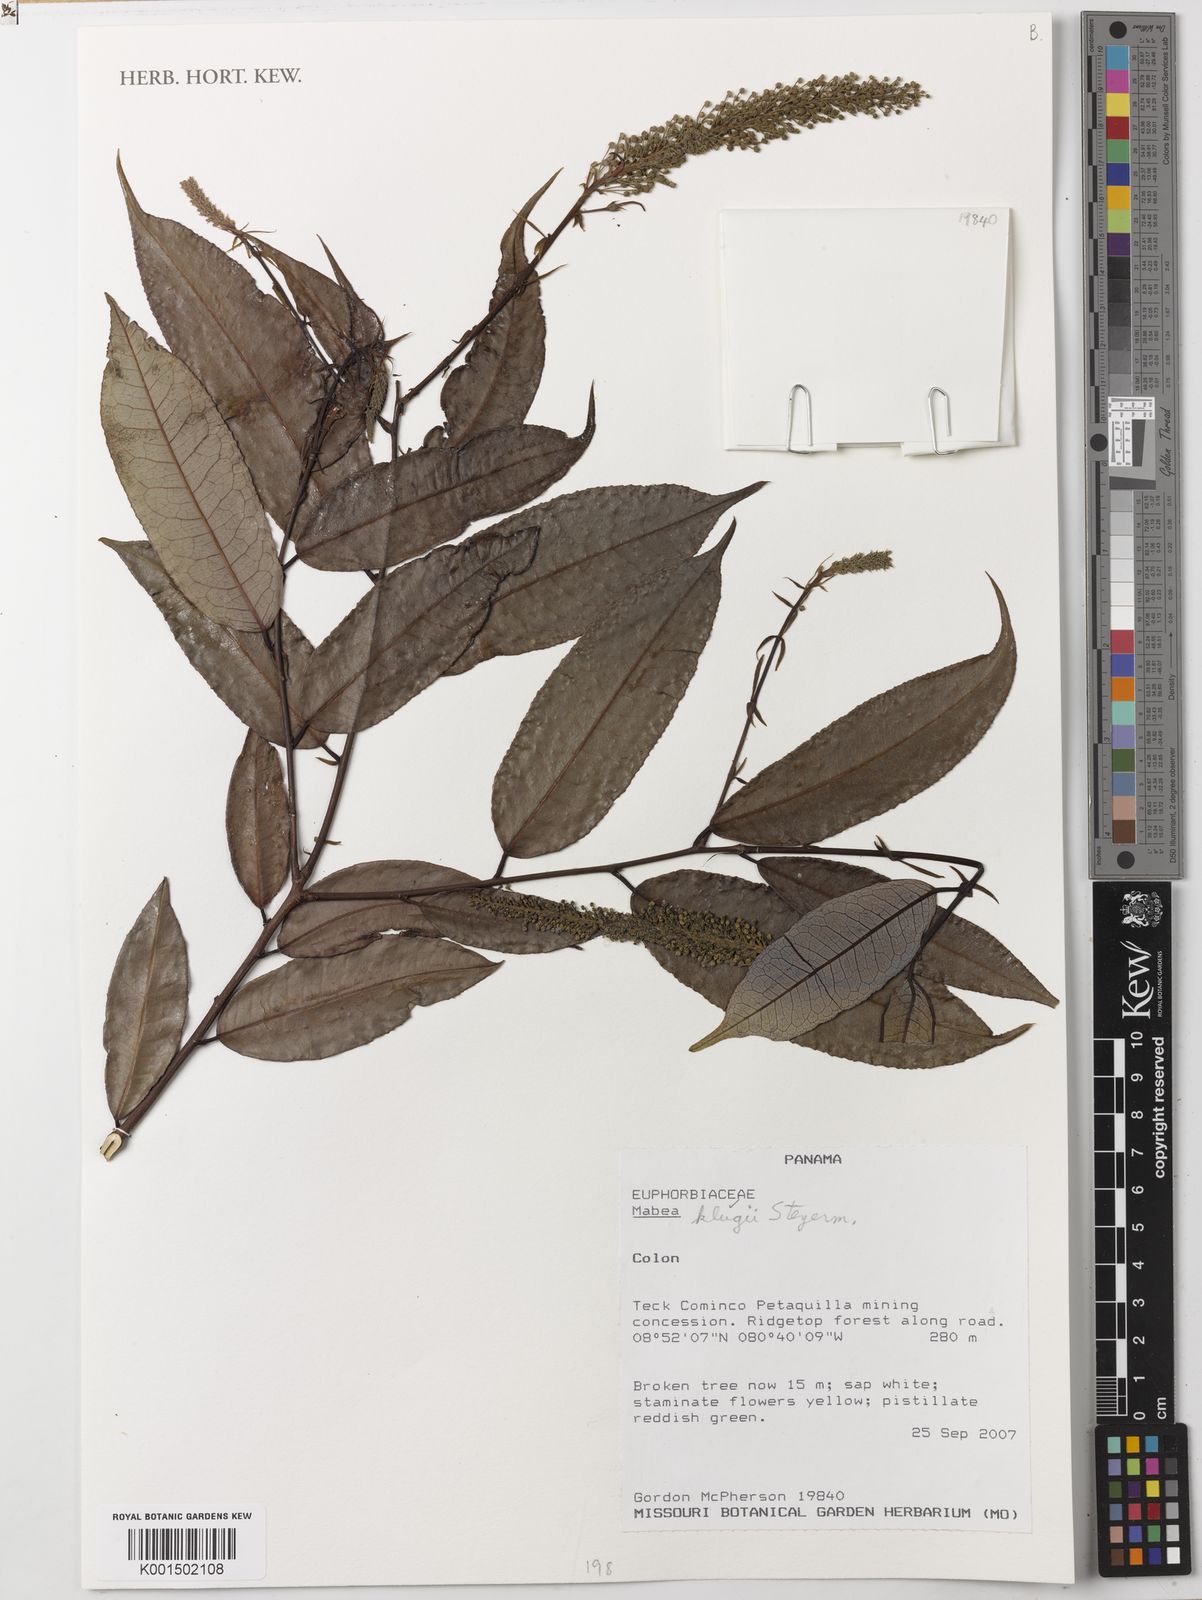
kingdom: Plantae
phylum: Tracheophyta
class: Magnoliopsida
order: Malpighiales
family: Euphorbiaceae
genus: Mabea
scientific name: Mabea klugii
